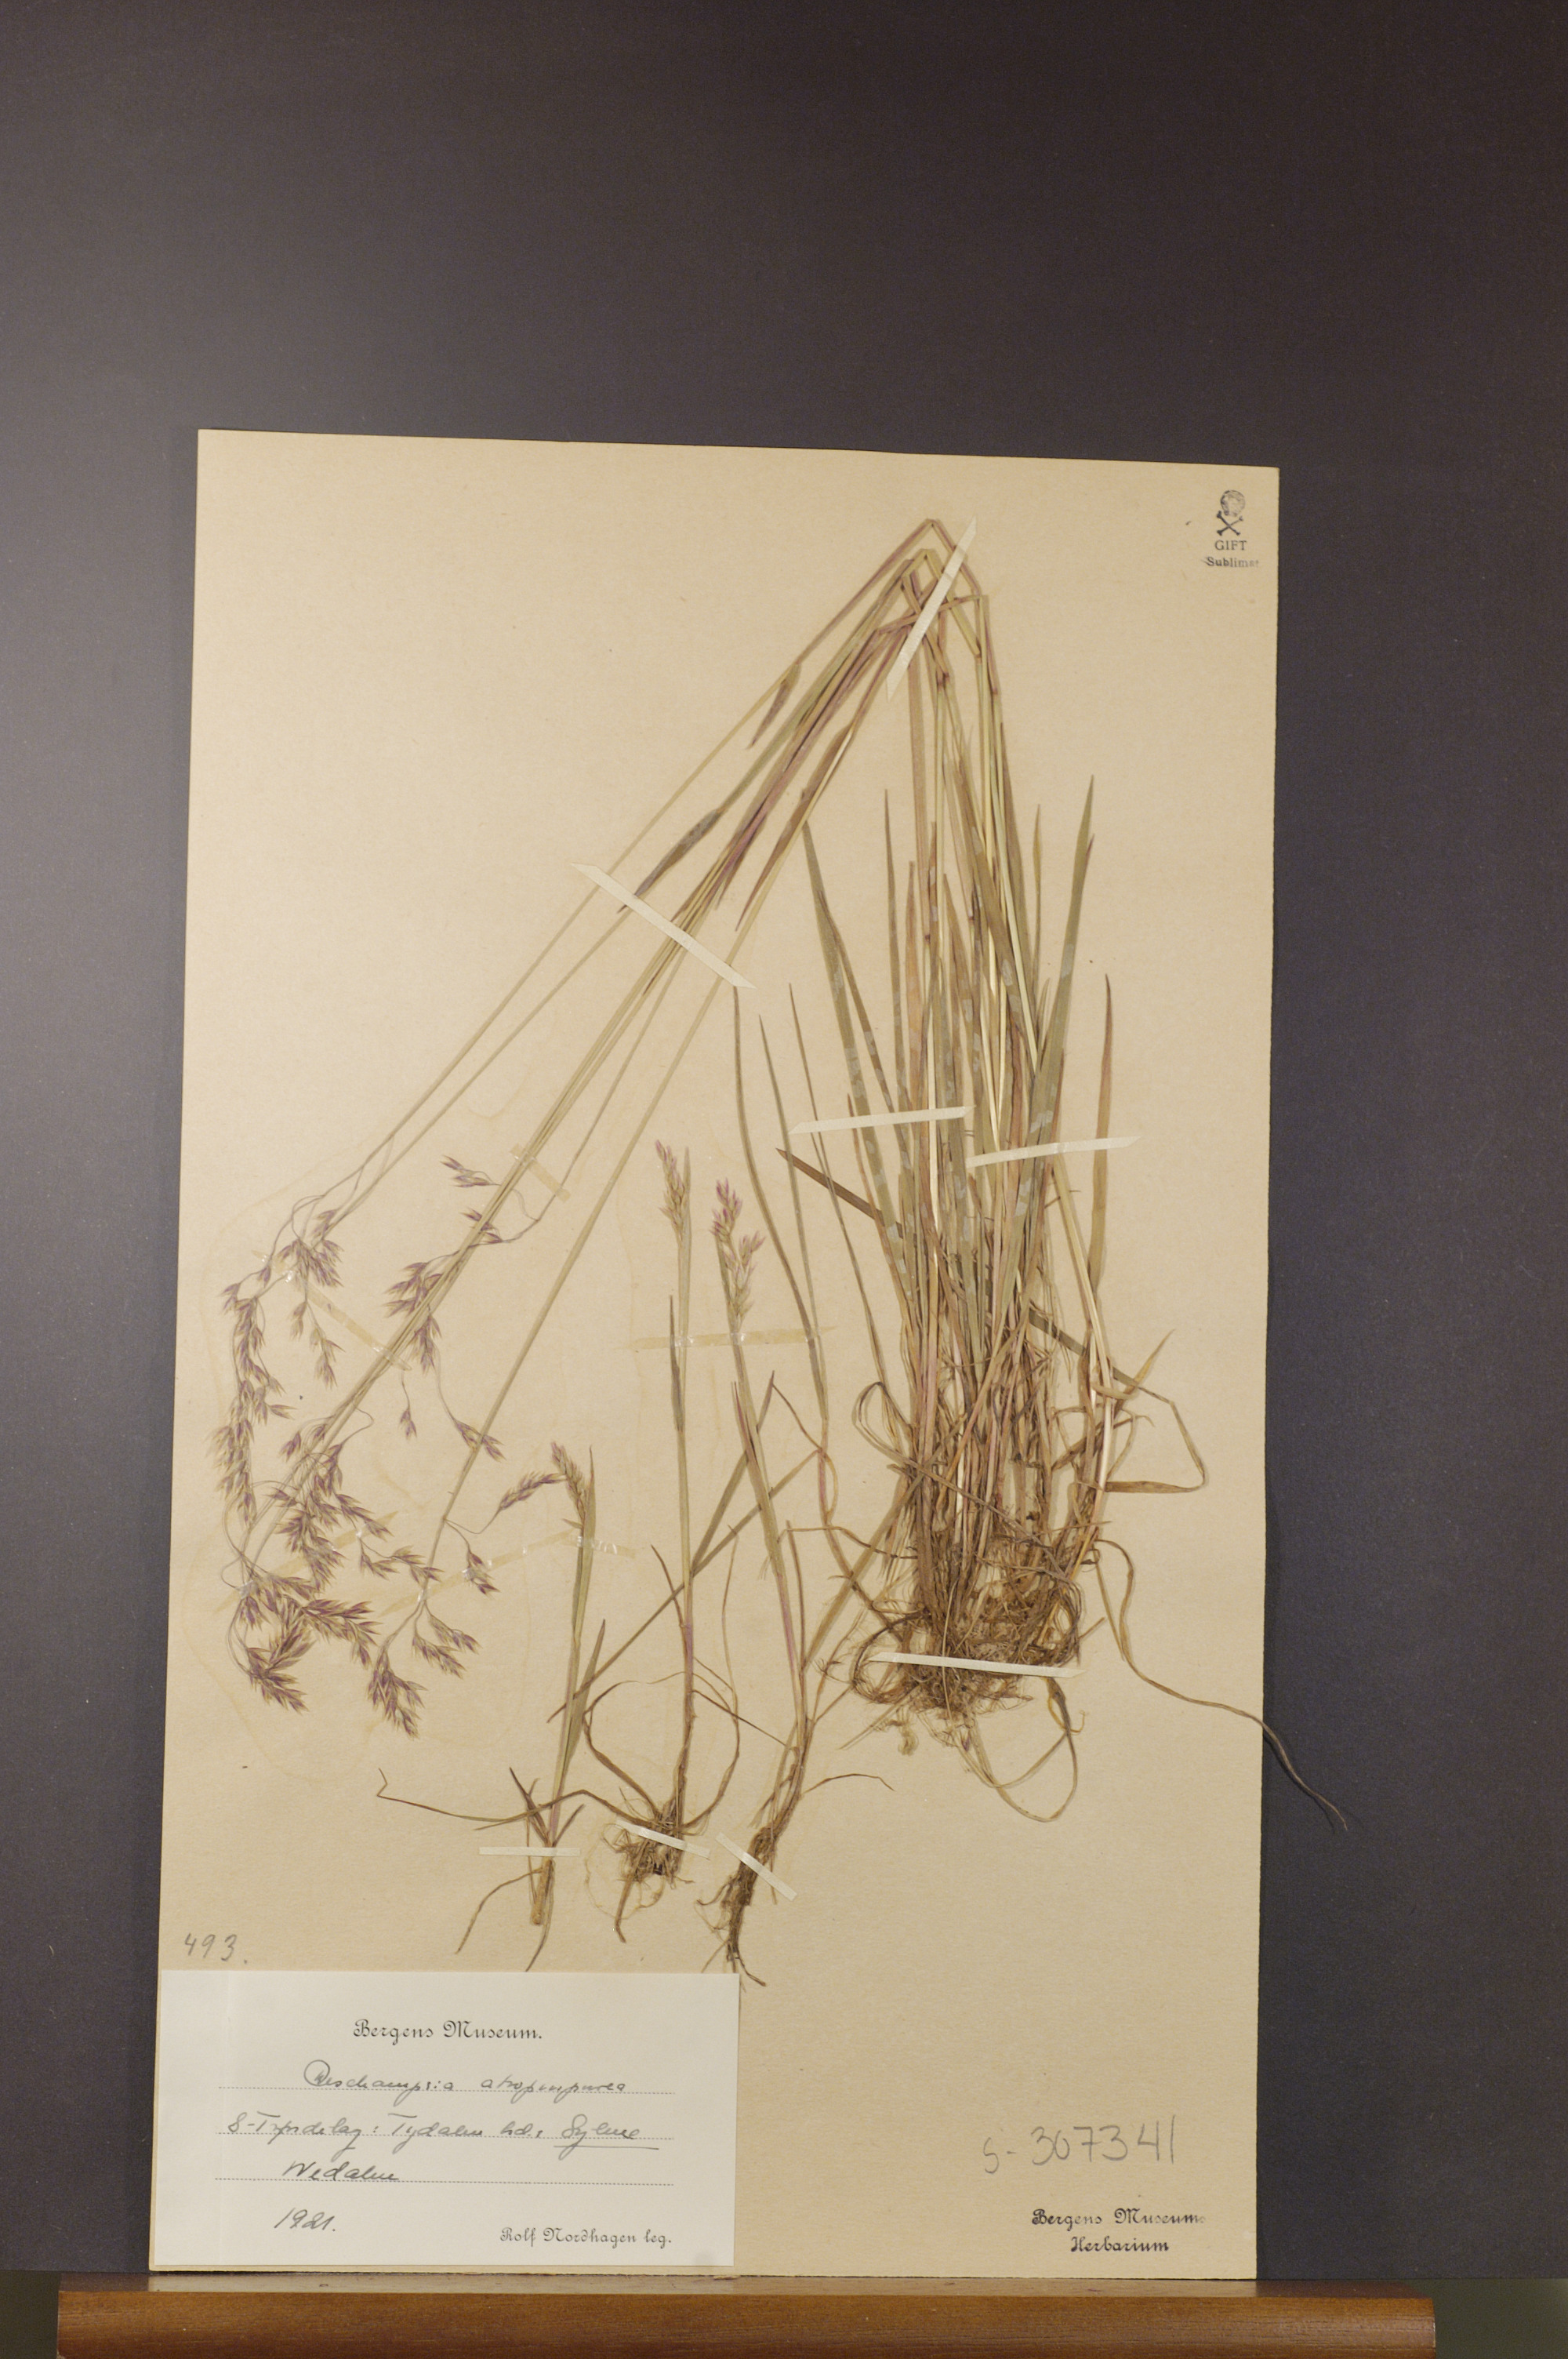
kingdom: Plantae
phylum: Tracheophyta
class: Liliopsida
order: Poales
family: Poaceae
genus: Vahlodea
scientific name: Vahlodea atropurpurea
